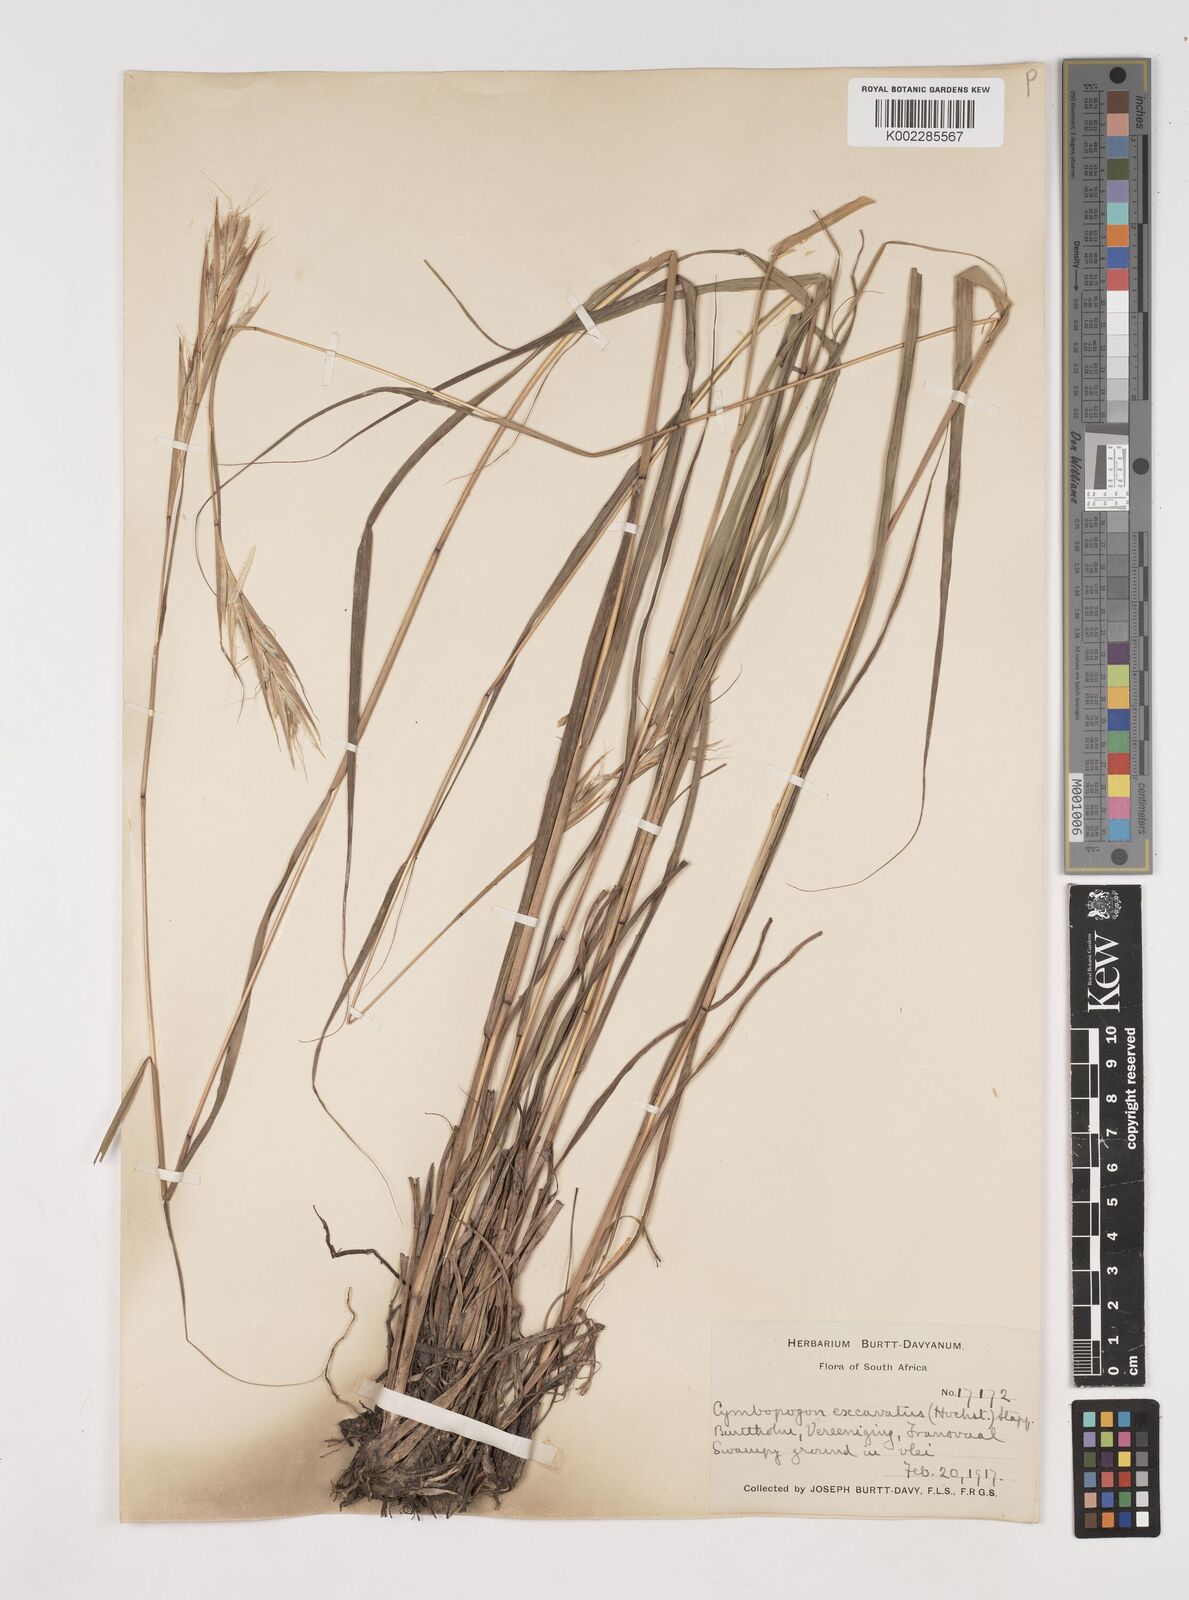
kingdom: Plantae
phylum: Tracheophyta
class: Liliopsida
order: Poales
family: Poaceae
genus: Cymbopogon
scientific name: Cymbopogon caesius
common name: Kachi grass
